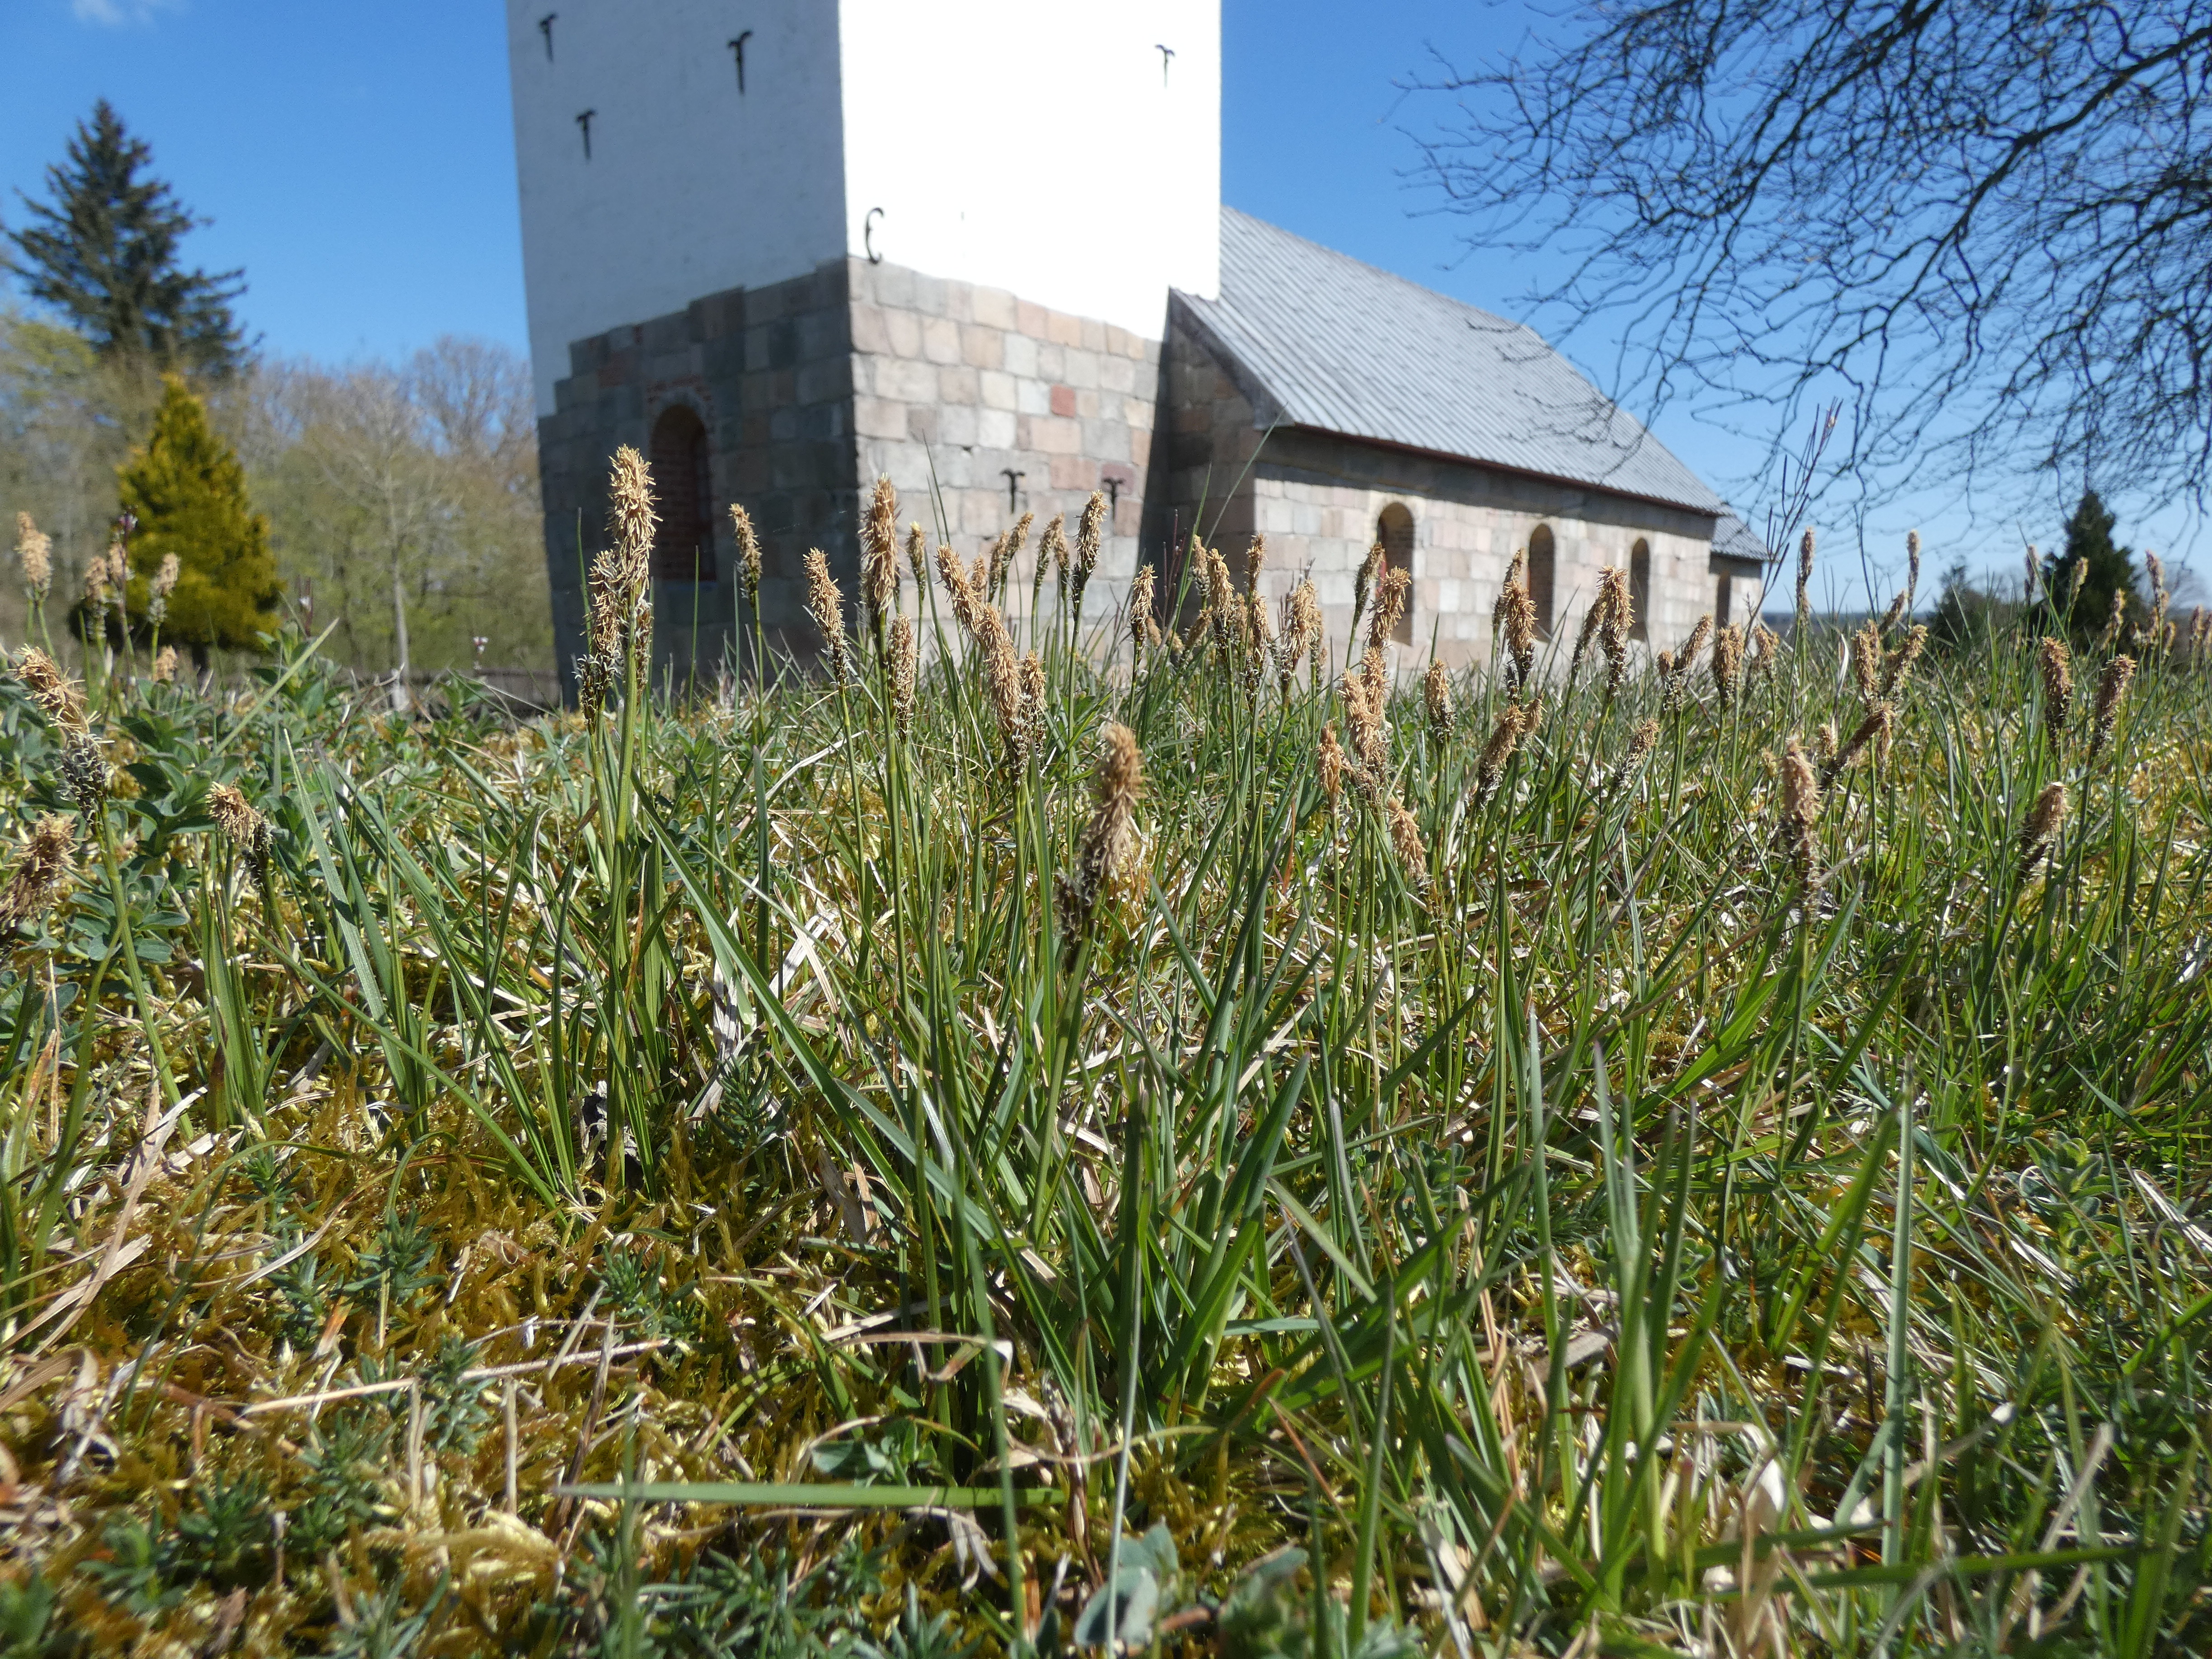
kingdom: Plantae
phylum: Tracheophyta
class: Liliopsida
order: Poales
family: Cyperaceae
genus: Carex
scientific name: Carex
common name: Starslægten
